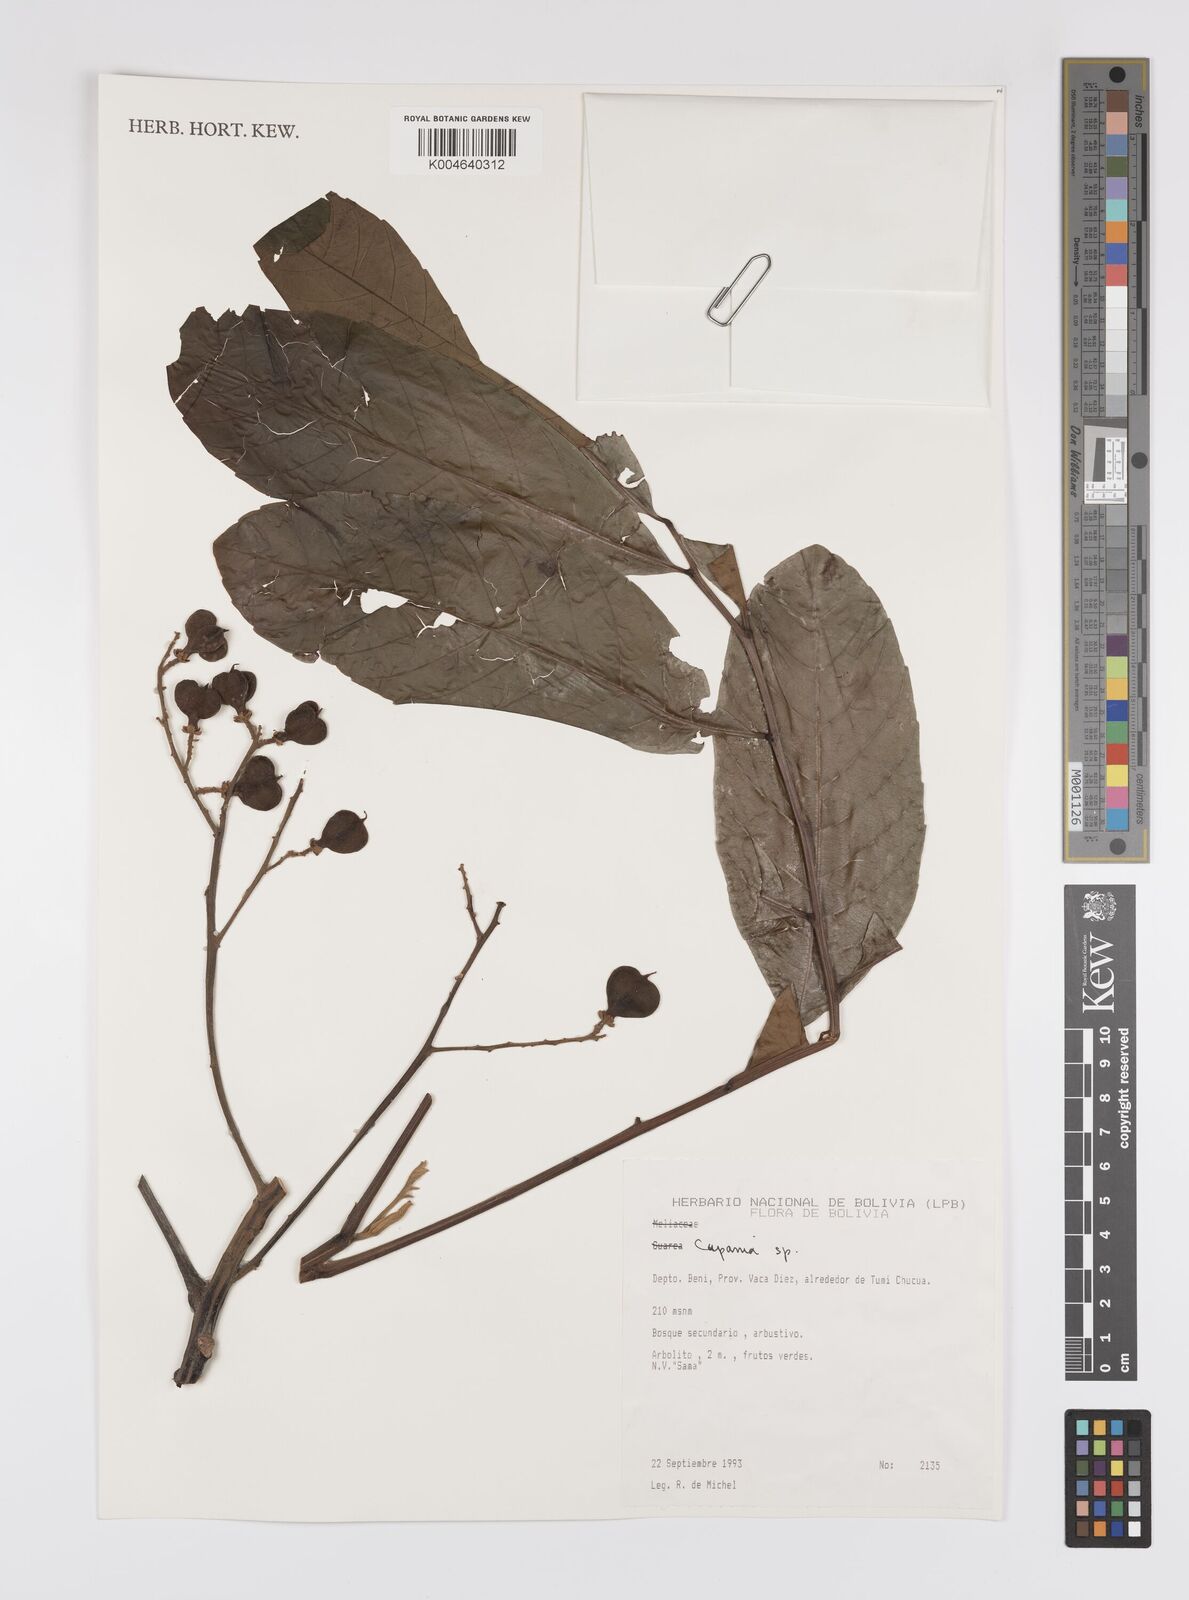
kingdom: Plantae
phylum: Tracheophyta
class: Magnoliopsida
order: Sapindales
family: Sapindaceae
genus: Cupania
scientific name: Cupania
